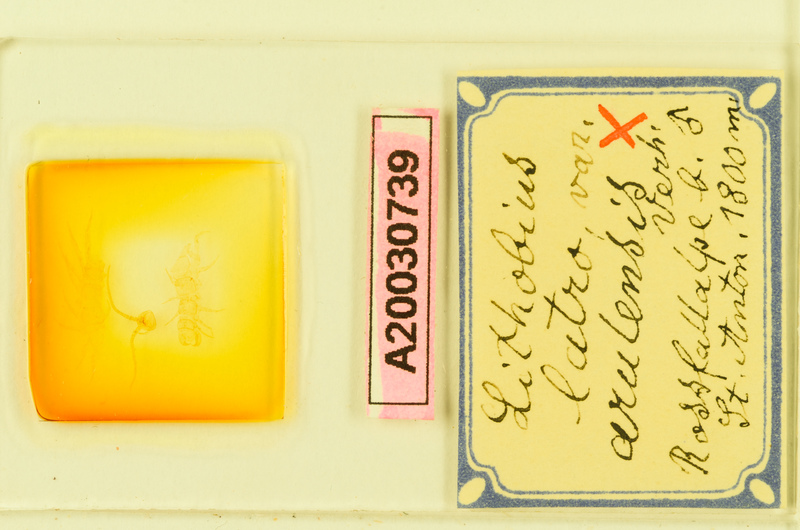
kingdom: Animalia
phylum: Arthropoda
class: Chilopoda
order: Lithobiomorpha
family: Lithobiidae
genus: Lithobius
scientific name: Lithobius latro
